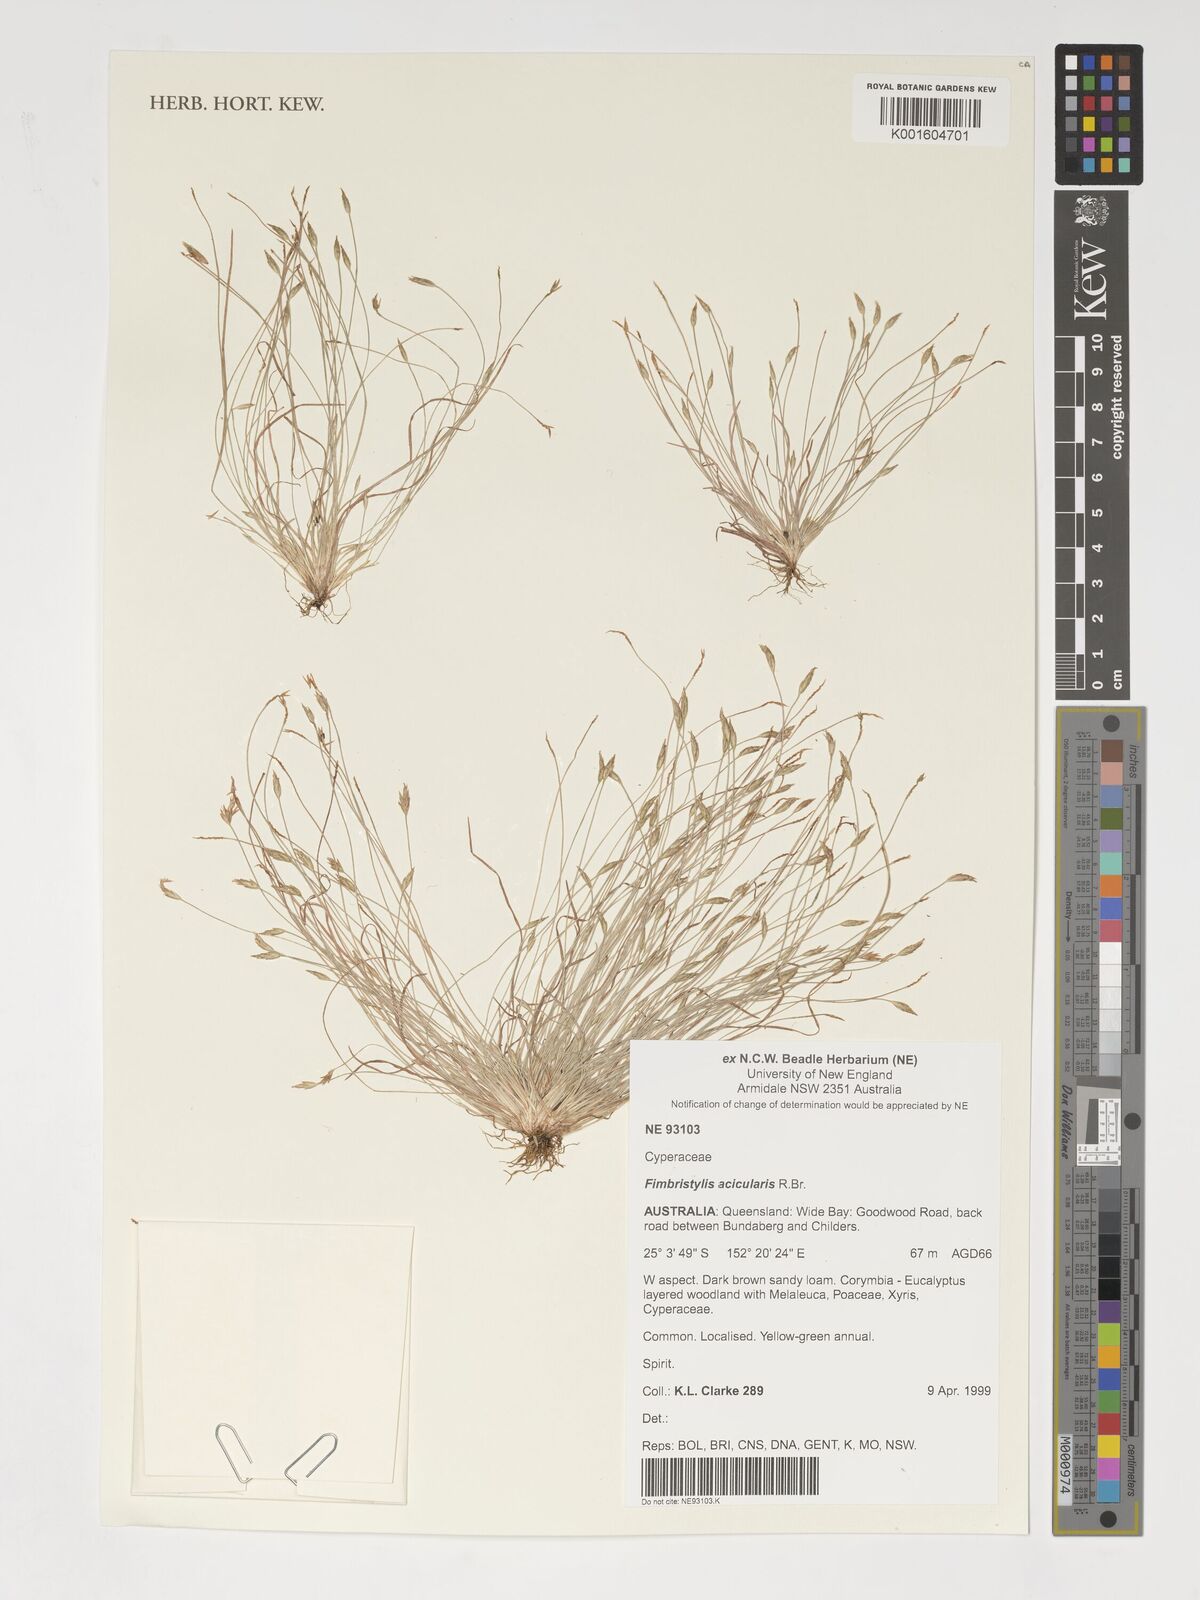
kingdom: Plantae
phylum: Tracheophyta
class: Liliopsida
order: Poales
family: Cyperaceae
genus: Fimbristylis
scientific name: Fimbristylis acicularis
